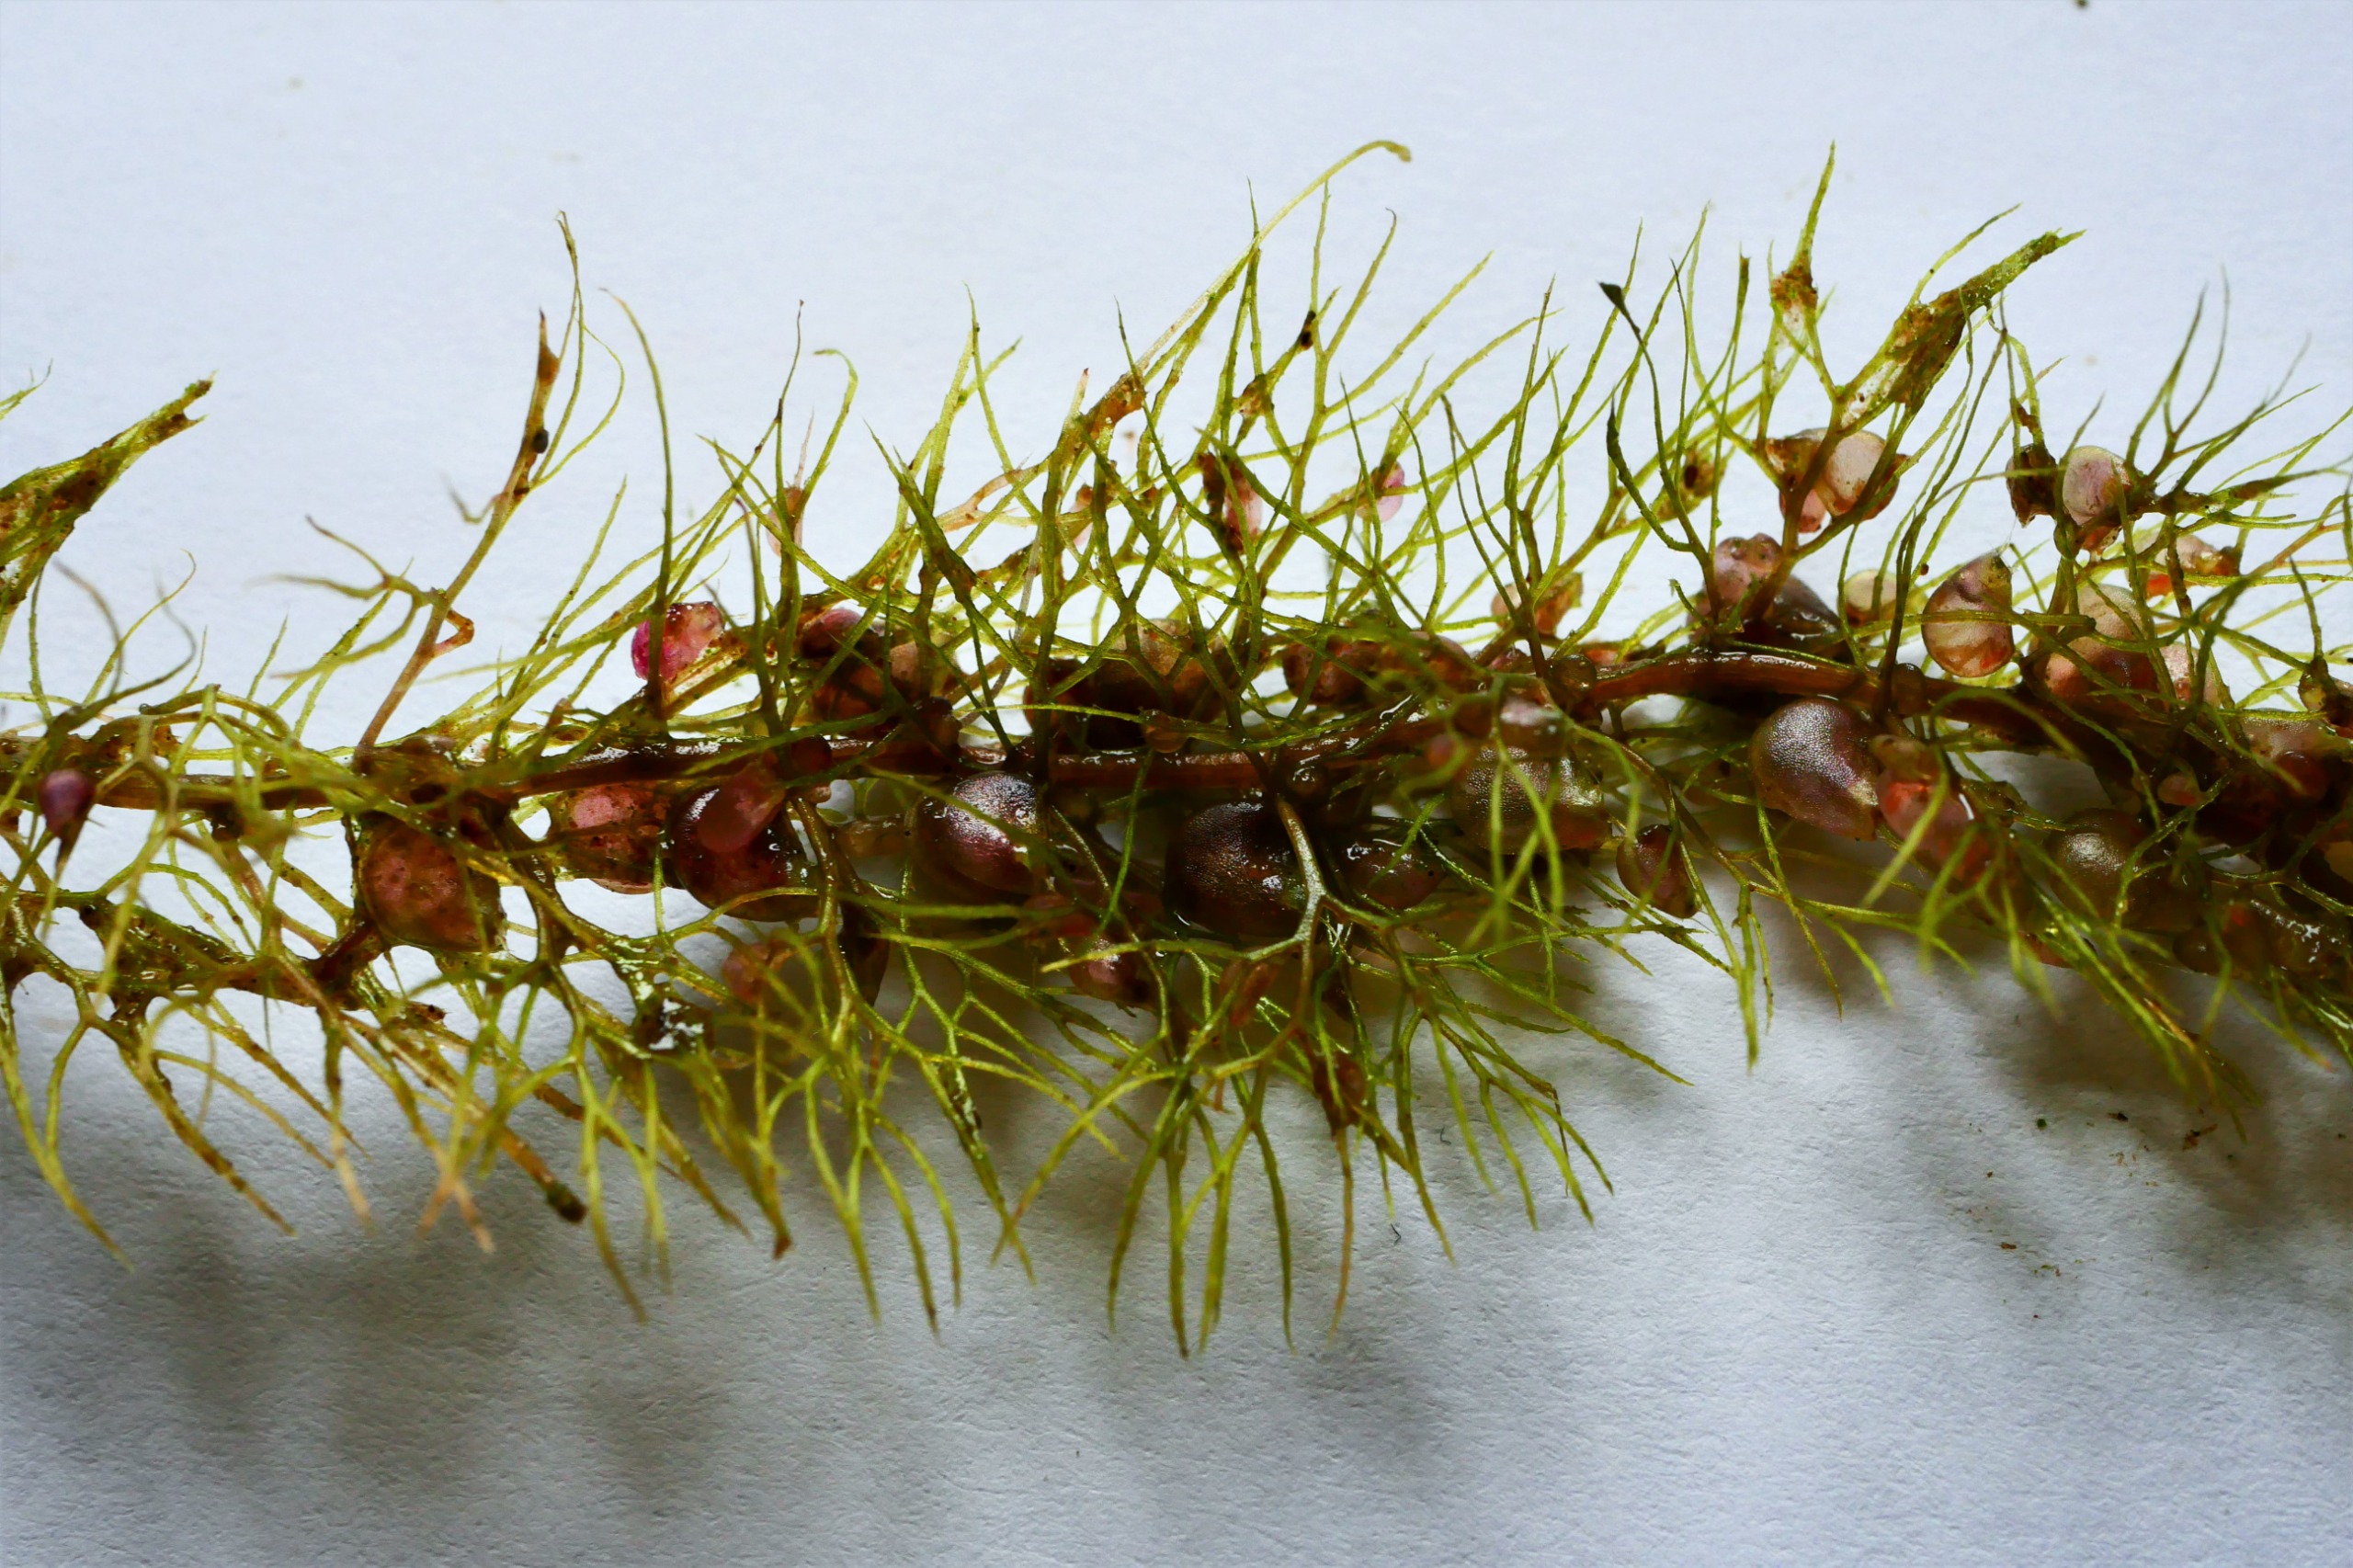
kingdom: Plantae
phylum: Tracheophyta
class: Magnoliopsida
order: Lamiales
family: Lentibulariaceae
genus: Utricularia
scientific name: Utricularia vulgaris
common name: Almindelig blærerod
